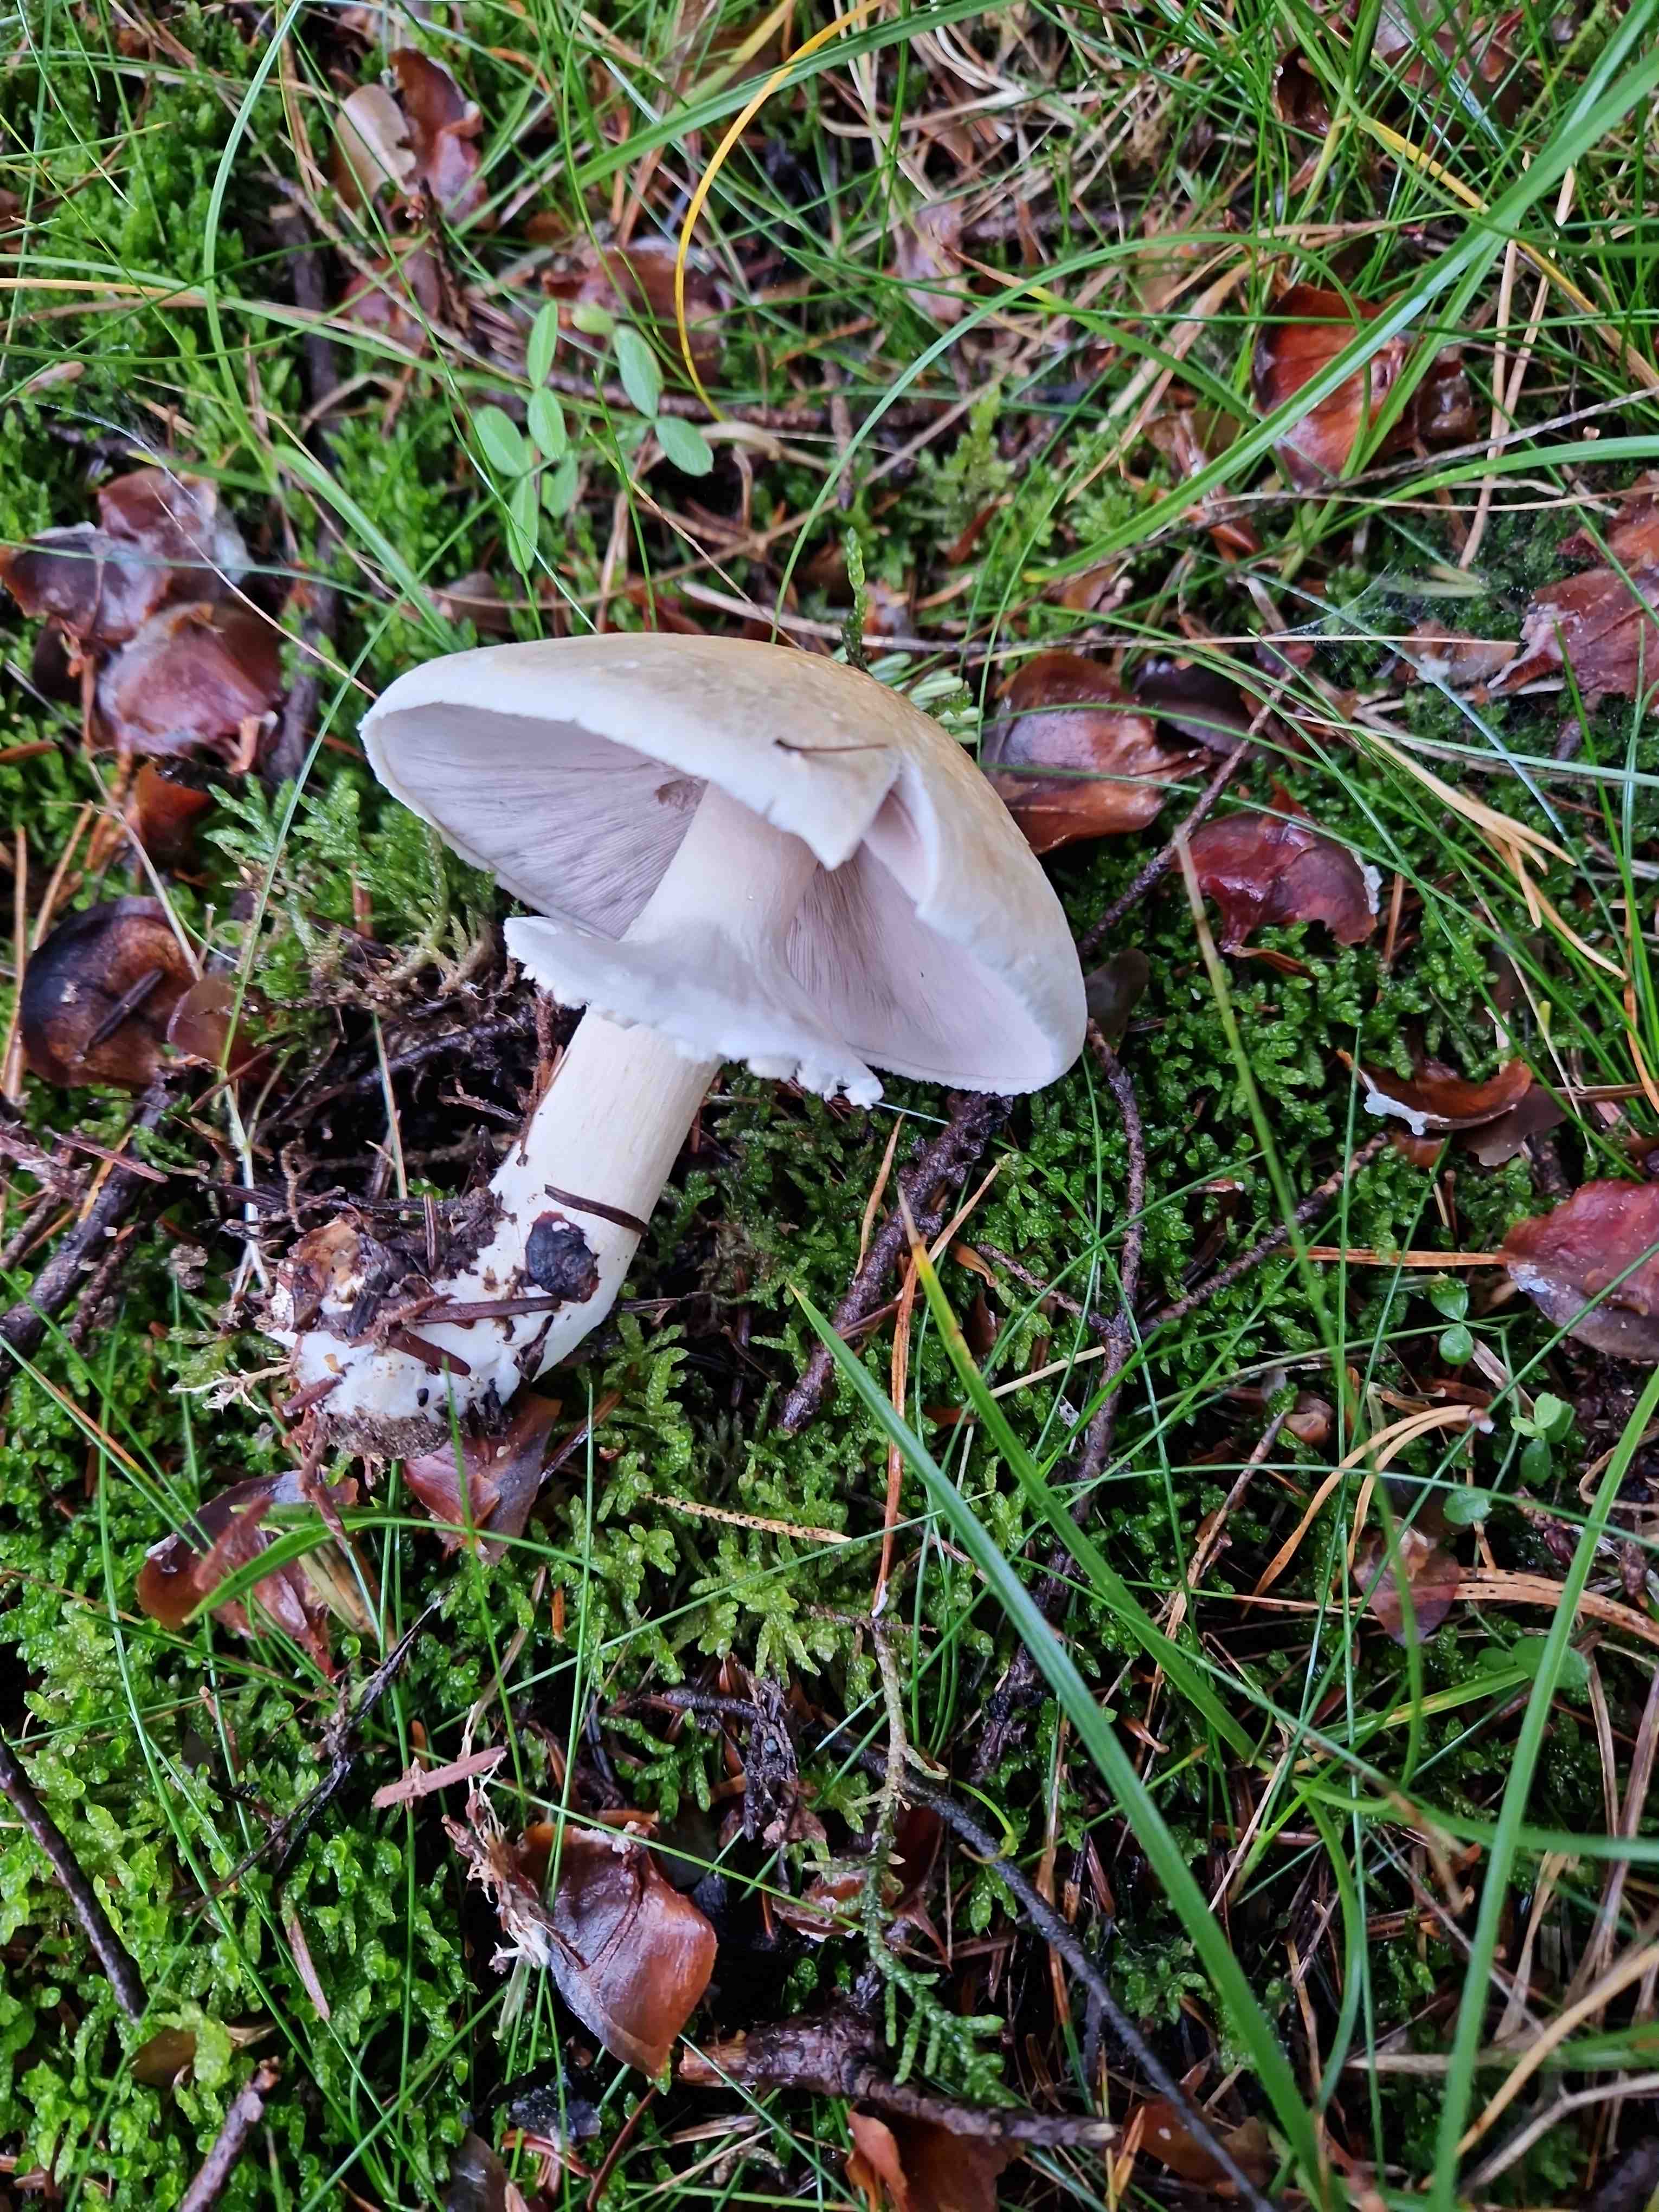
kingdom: Fungi
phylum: Basidiomycota
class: Agaricomycetes
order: Agaricales
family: Agaricaceae
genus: Agaricus
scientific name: Agaricus
